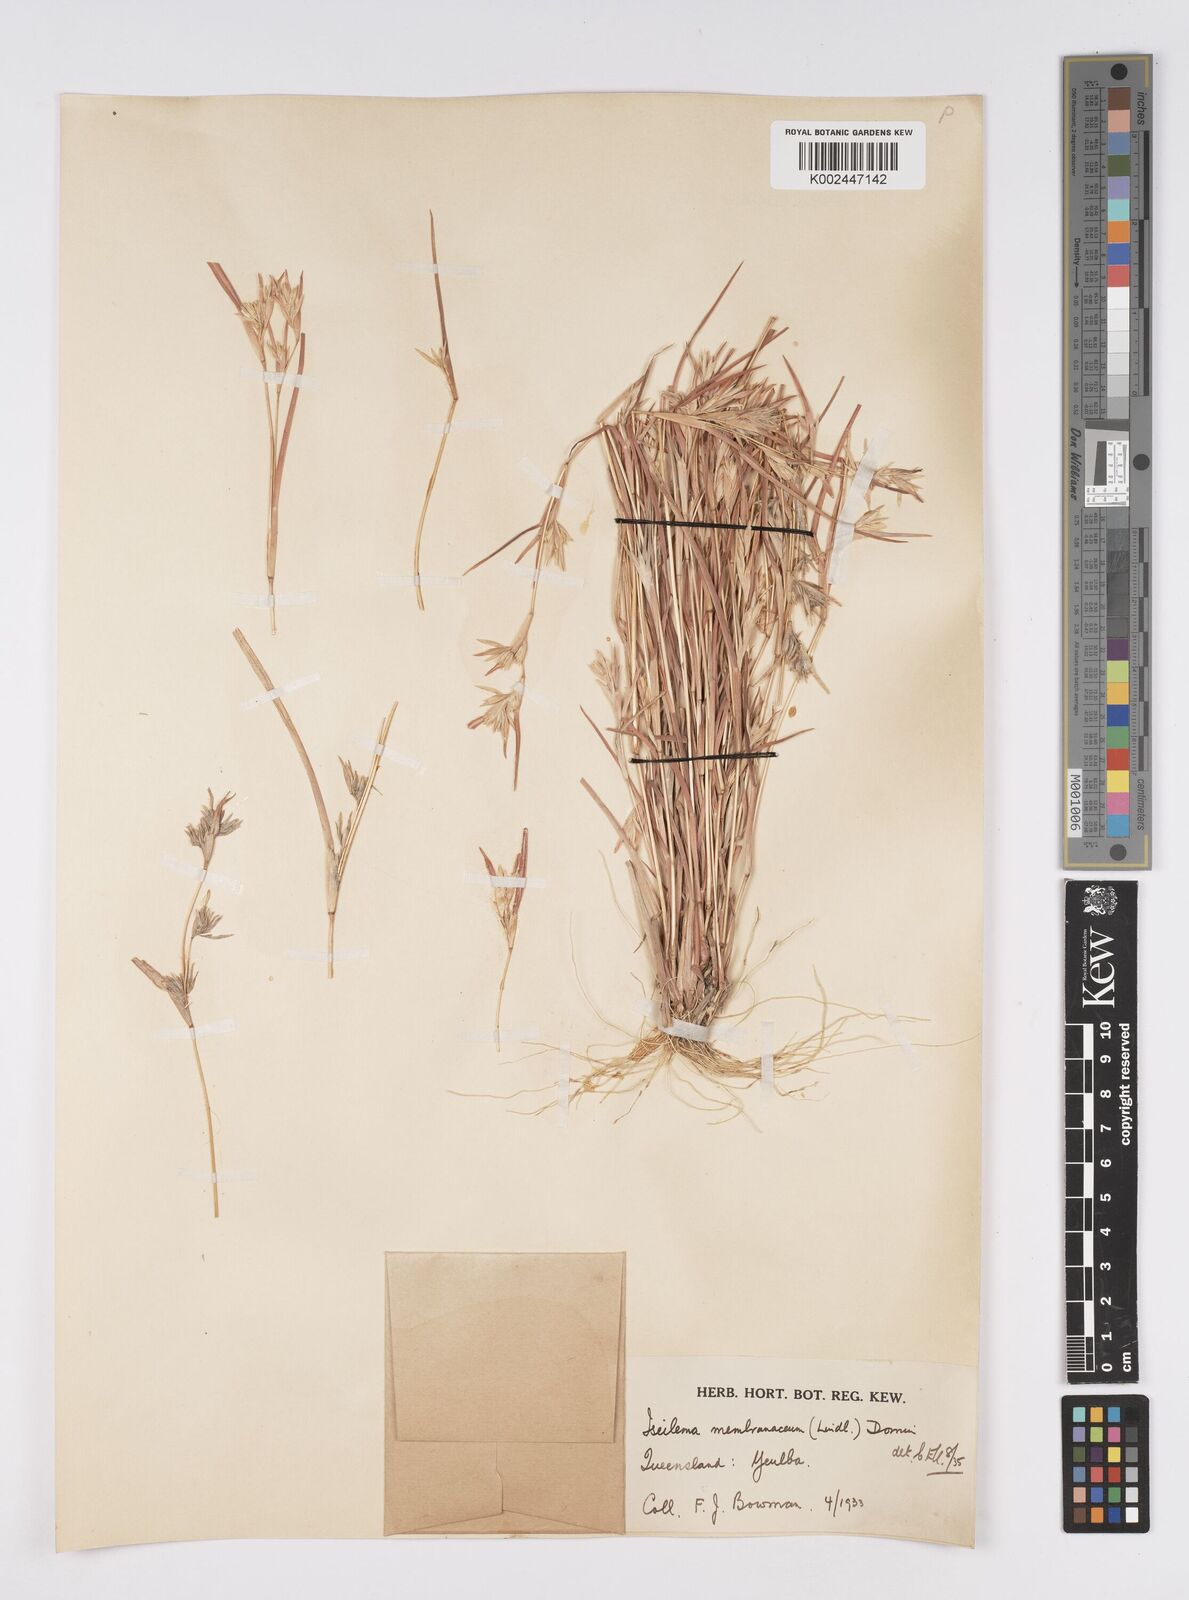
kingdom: Plantae
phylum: Tracheophyta
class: Liliopsida
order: Poales
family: Poaceae
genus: Iseilema
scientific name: Iseilema membranaceum
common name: Small flinders grass
